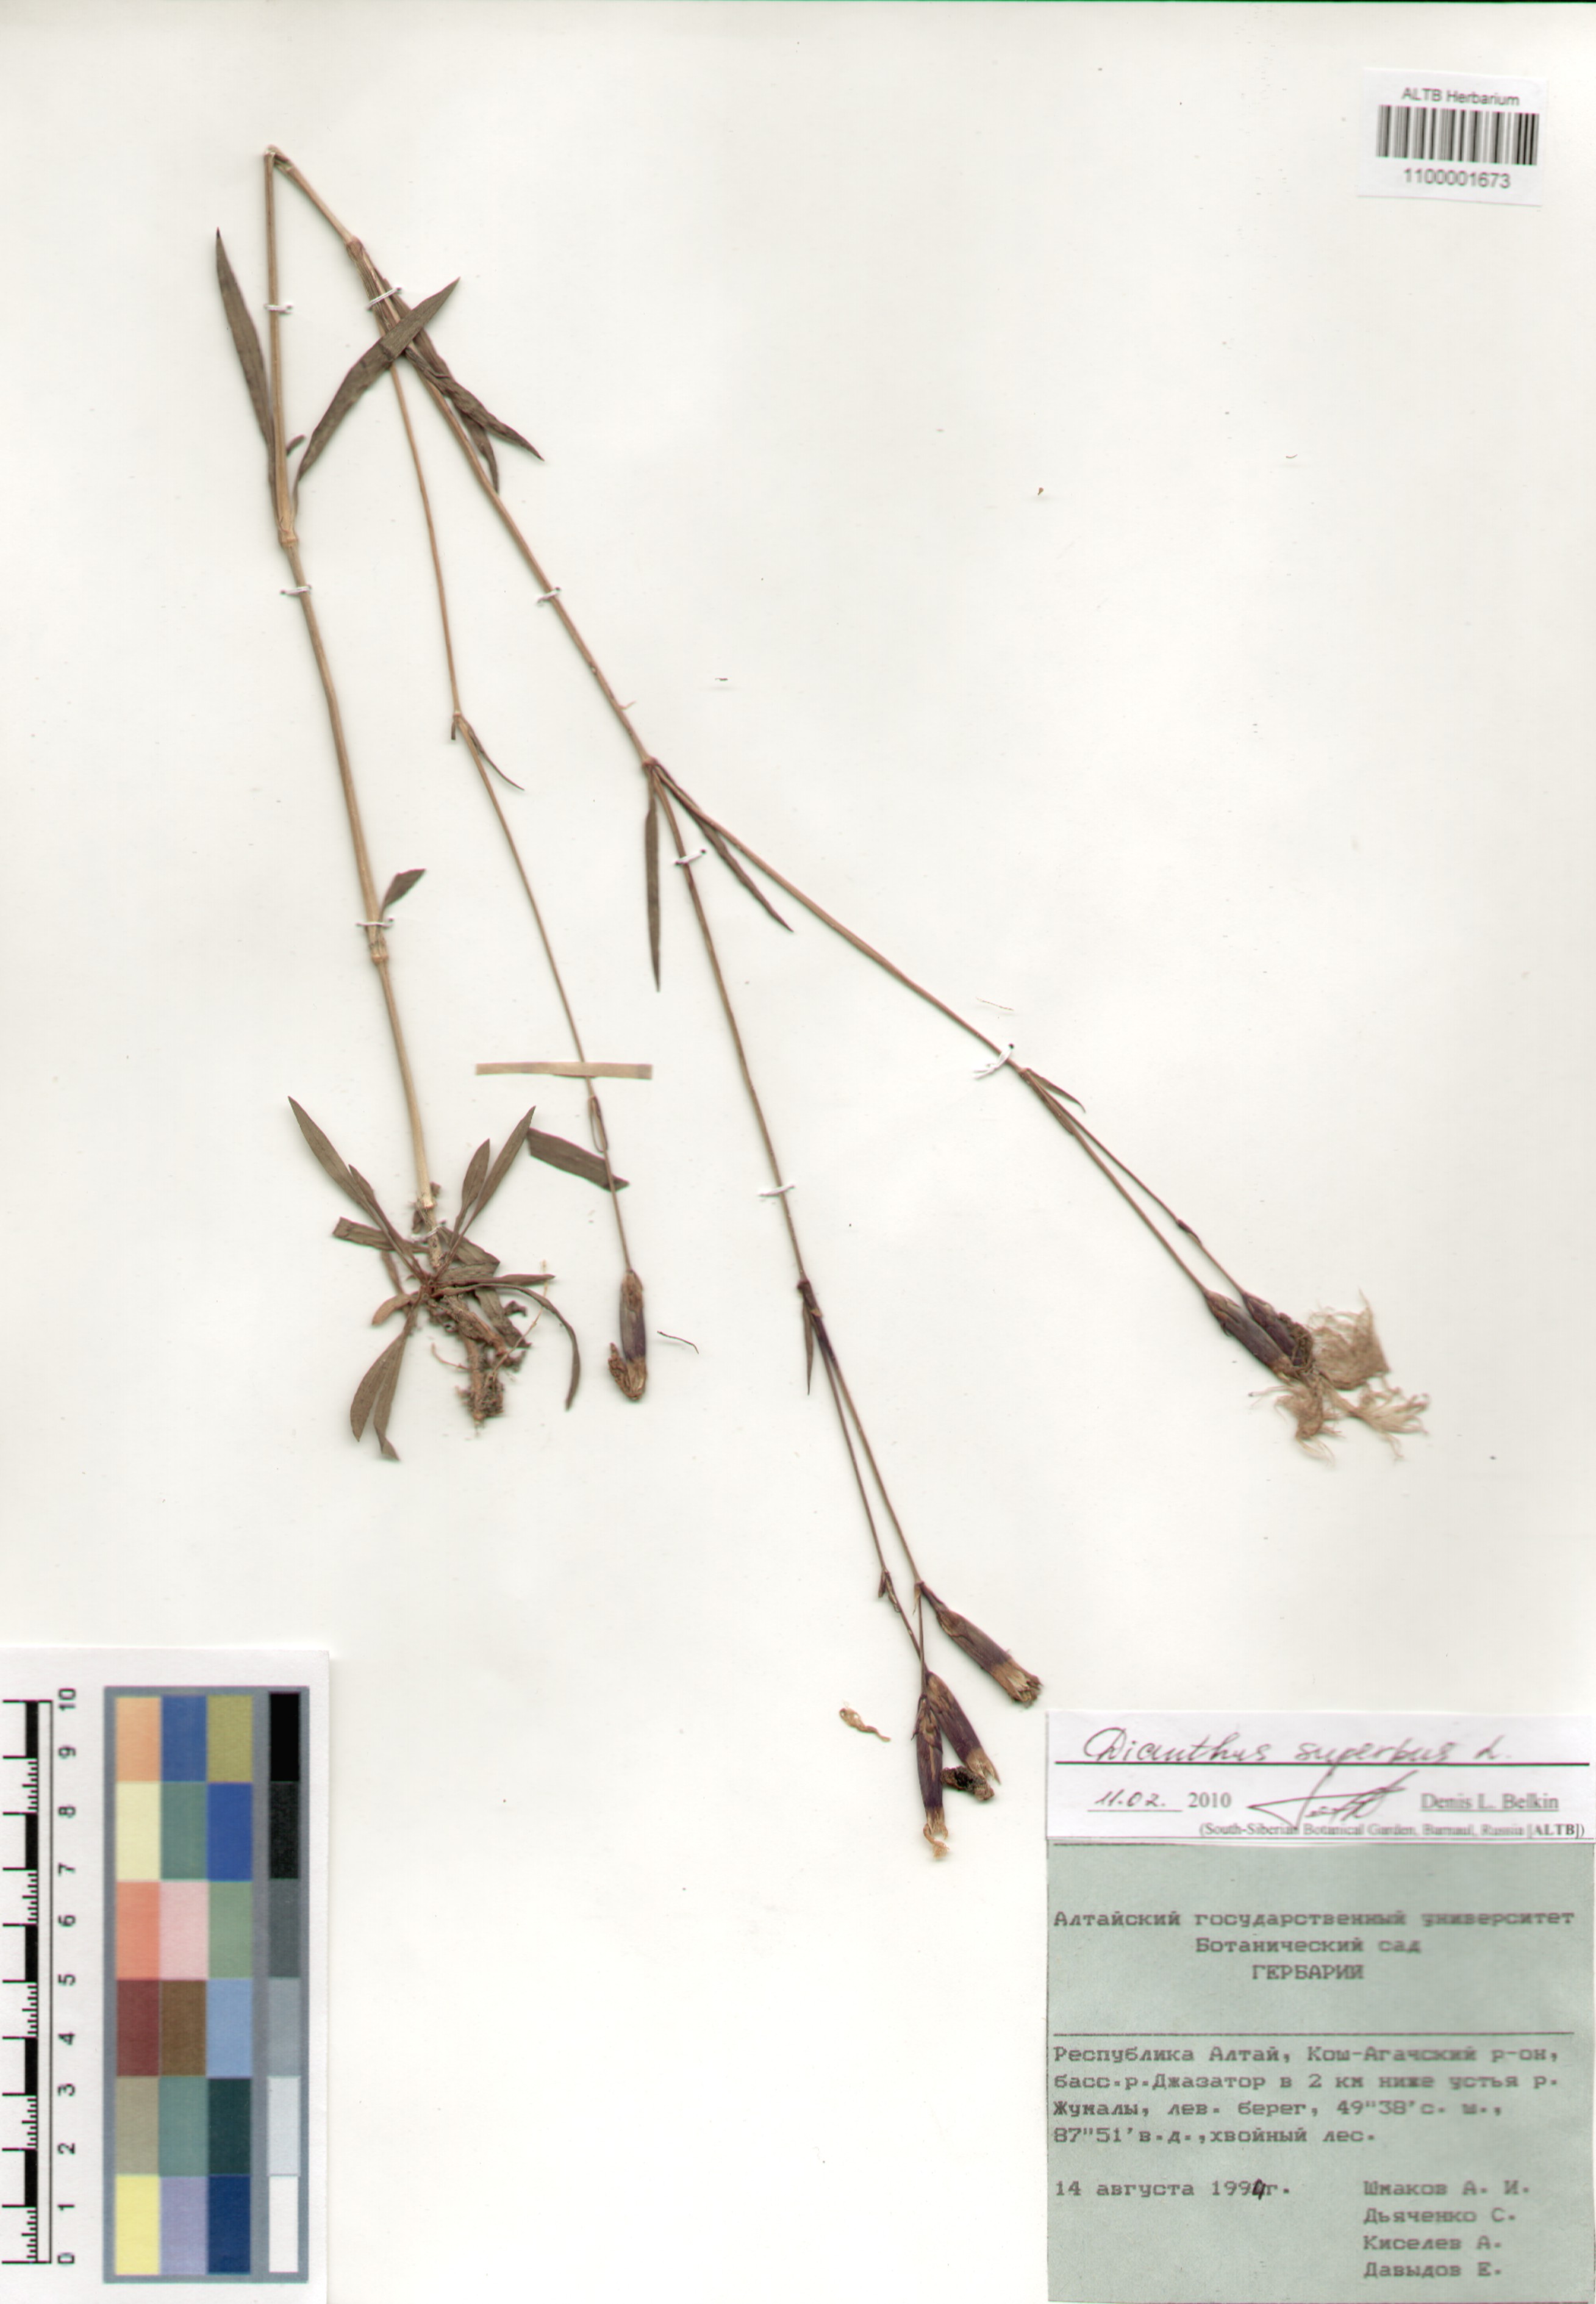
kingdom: Plantae
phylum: Tracheophyta
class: Magnoliopsida
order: Caryophyllales
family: Caryophyllaceae
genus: Dianthus
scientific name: Dianthus superbus
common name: Fringed pink
